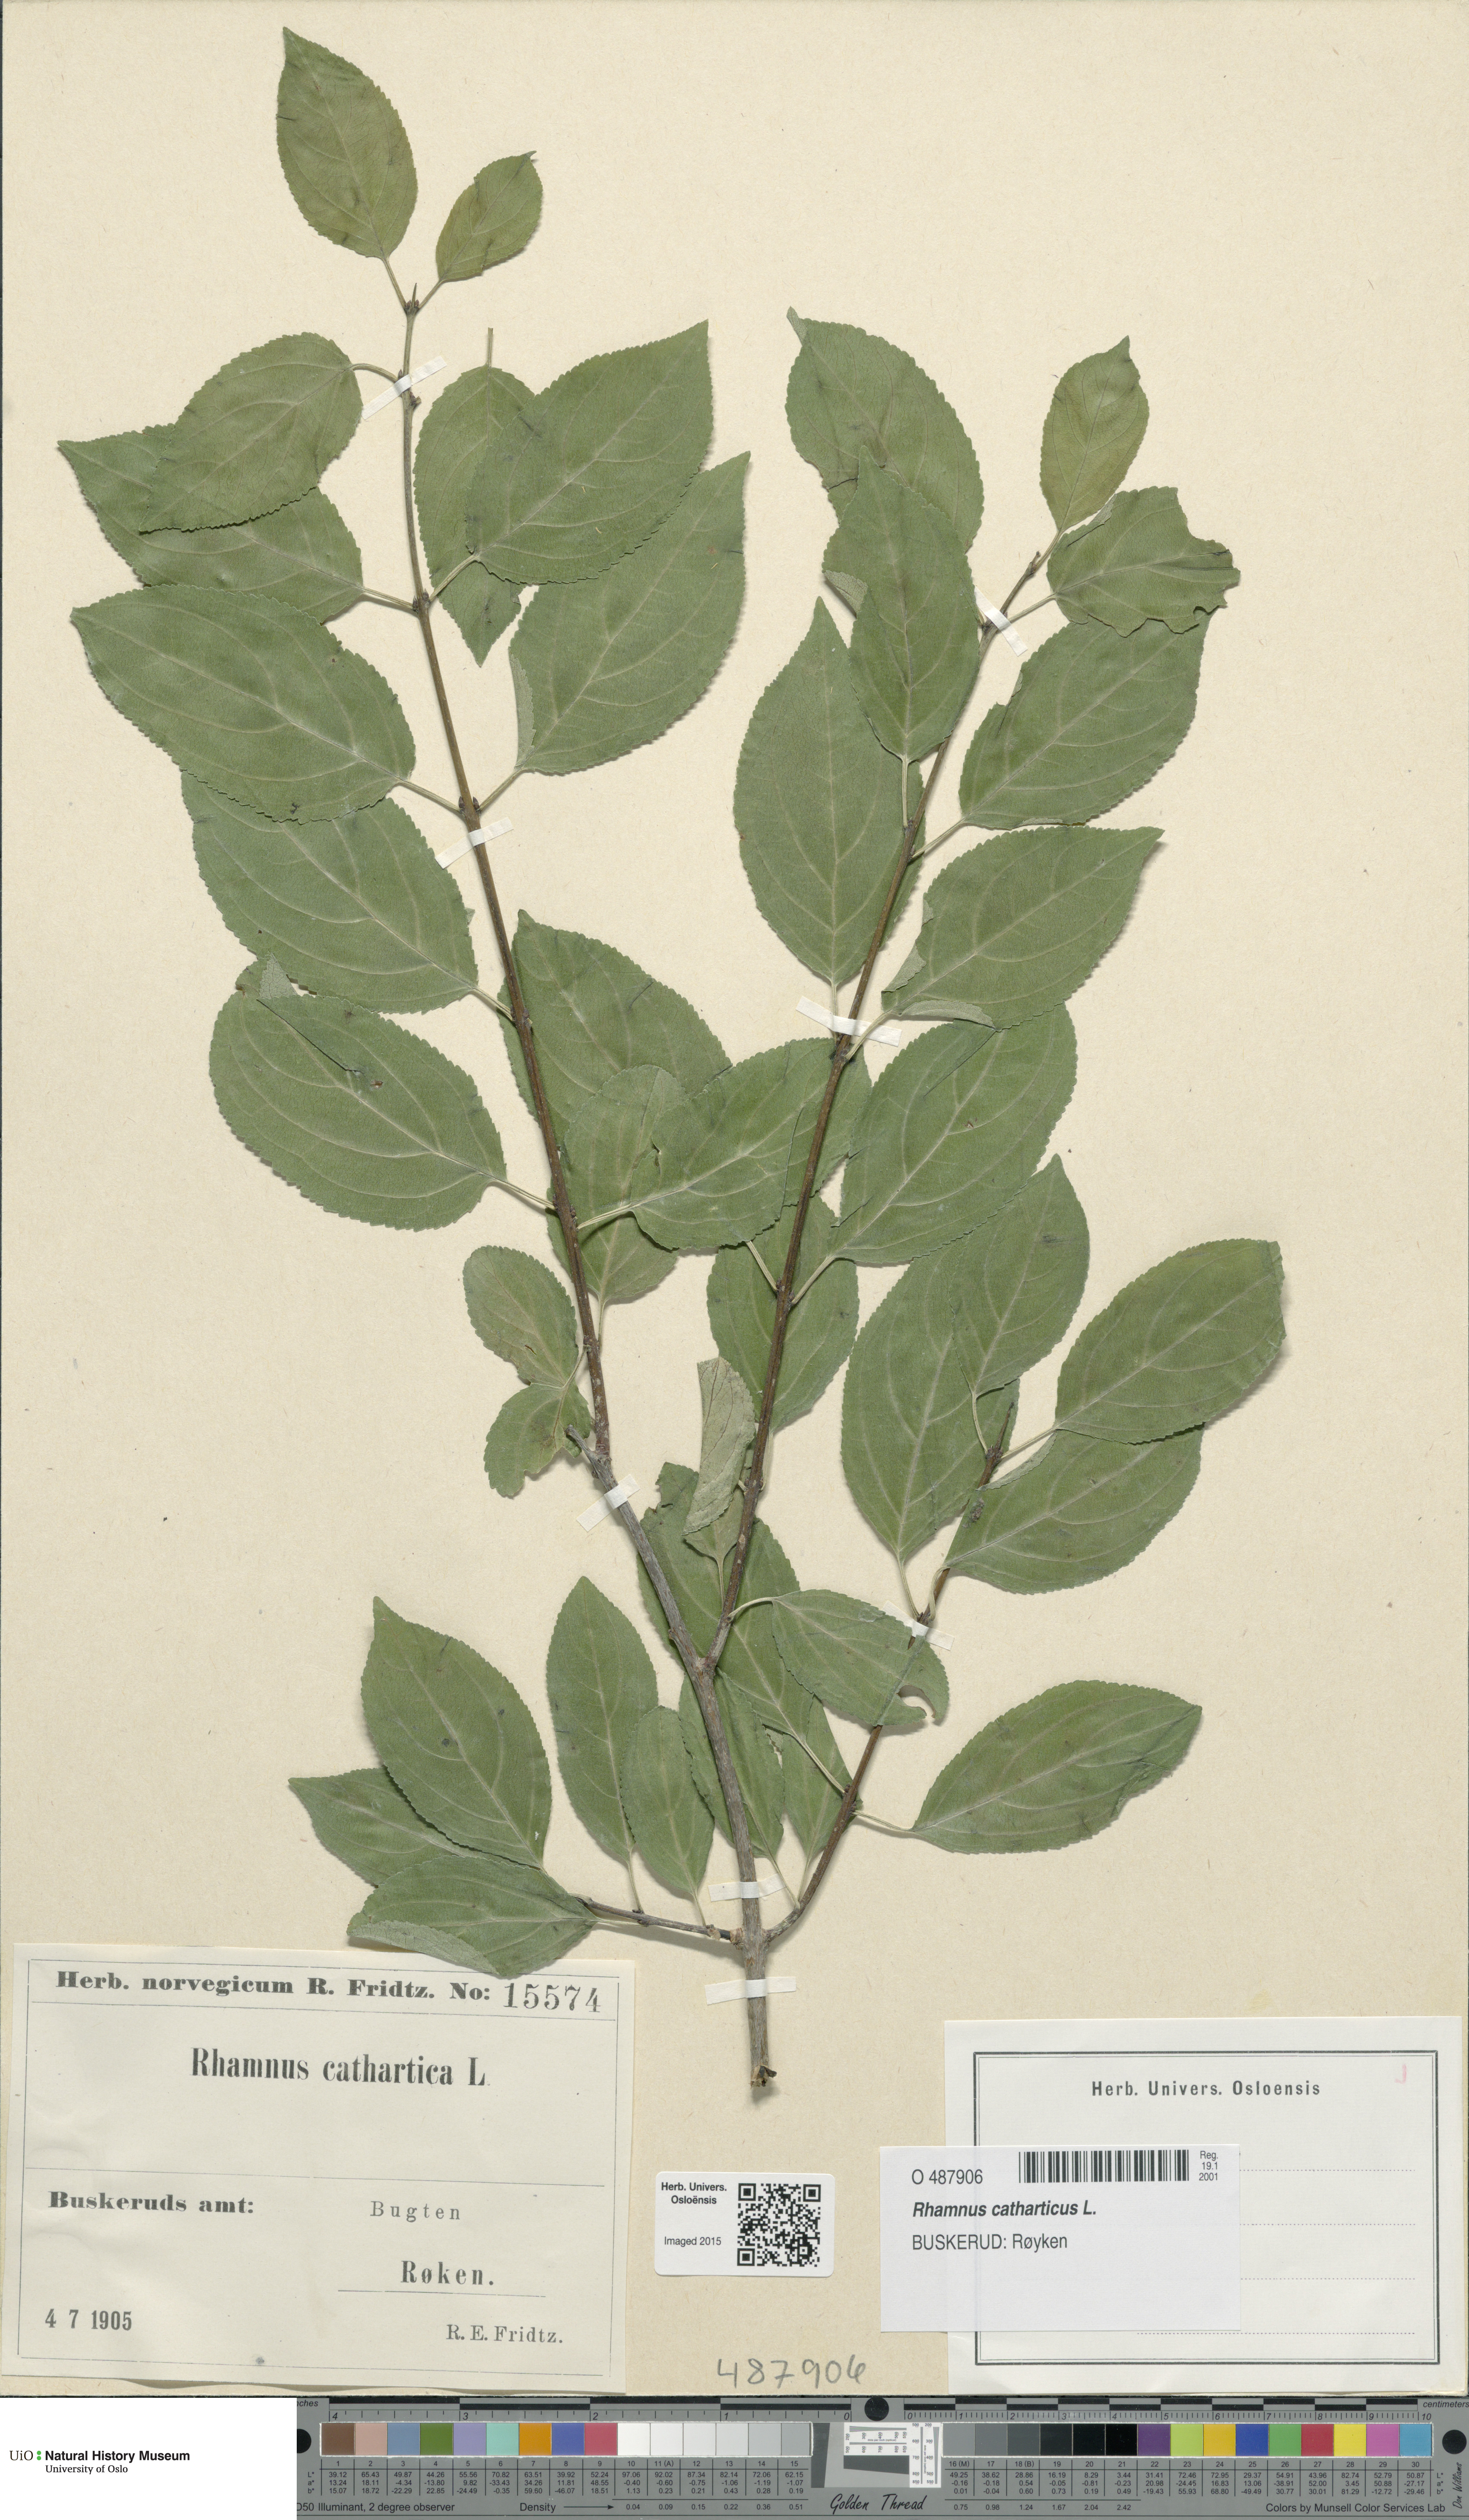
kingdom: Plantae
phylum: Tracheophyta
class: Magnoliopsida
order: Rosales
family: Rhamnaceae
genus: Rhamnus
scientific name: Rhamnus cathartica
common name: Common buckthorn
